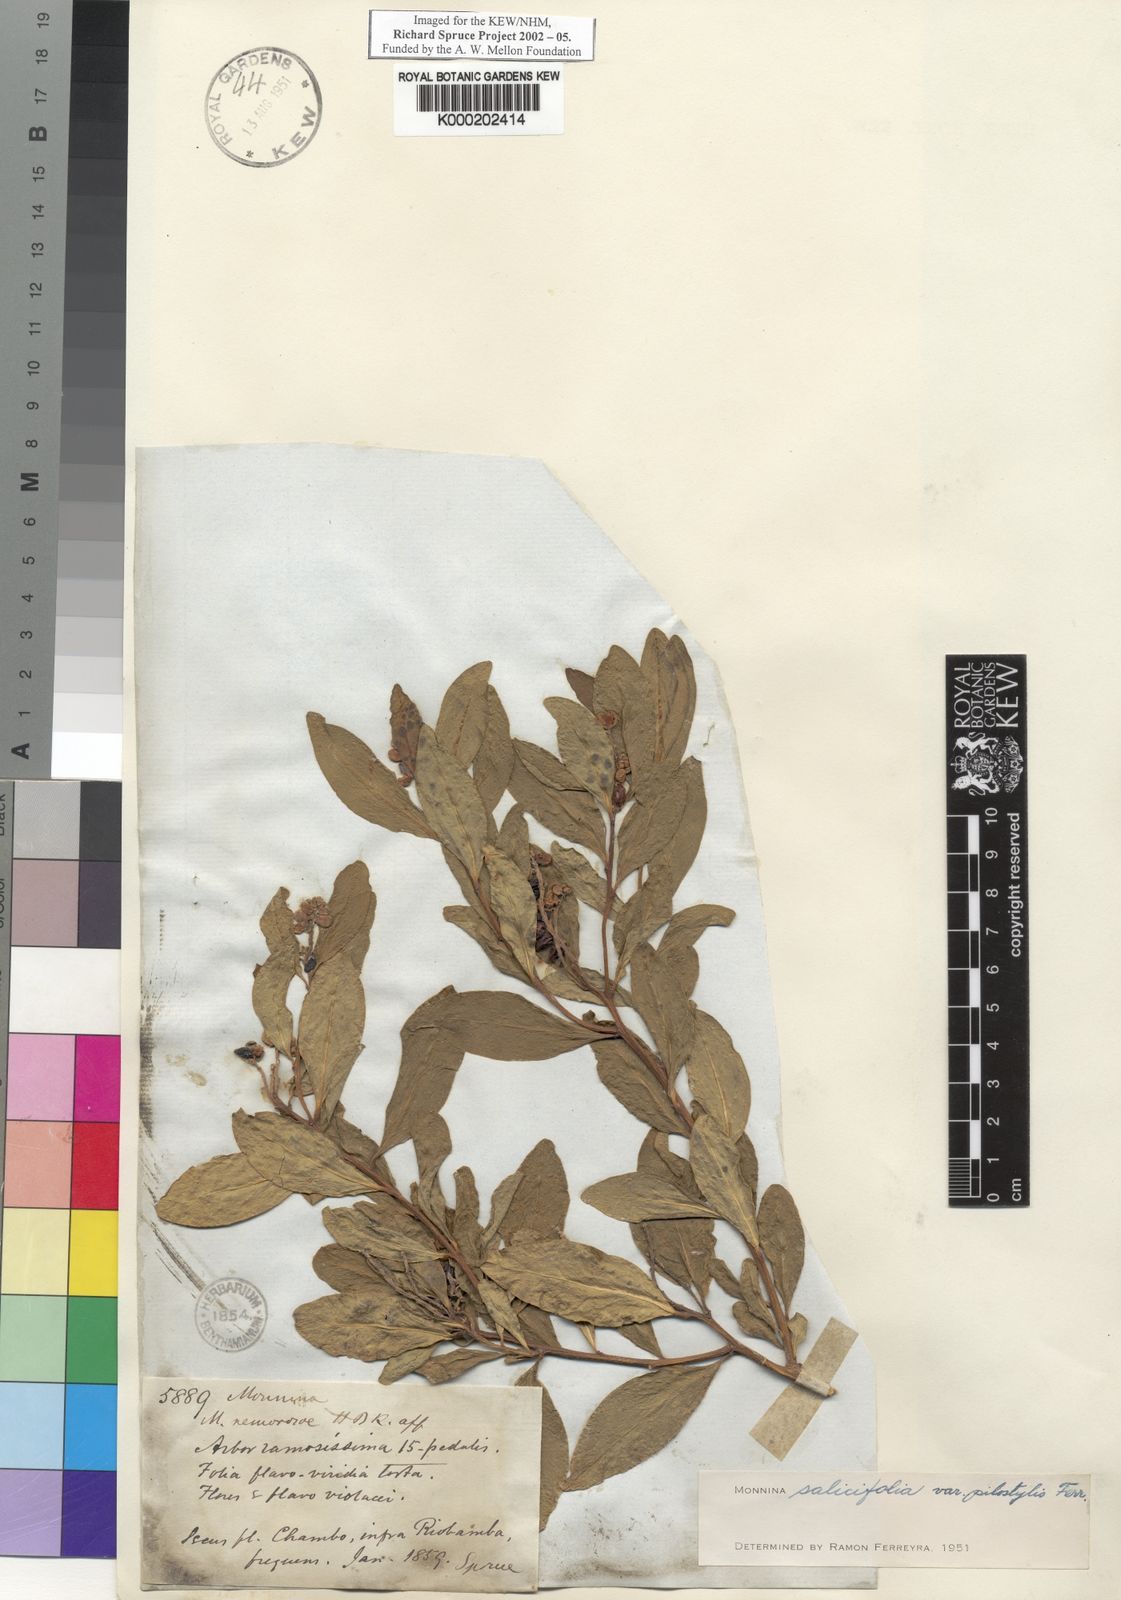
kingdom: Plantae
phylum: Tracheophyta
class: Magnoliopsida
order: Fabales
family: Polygalaceae
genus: Monnina
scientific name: Monnina salicifolia
